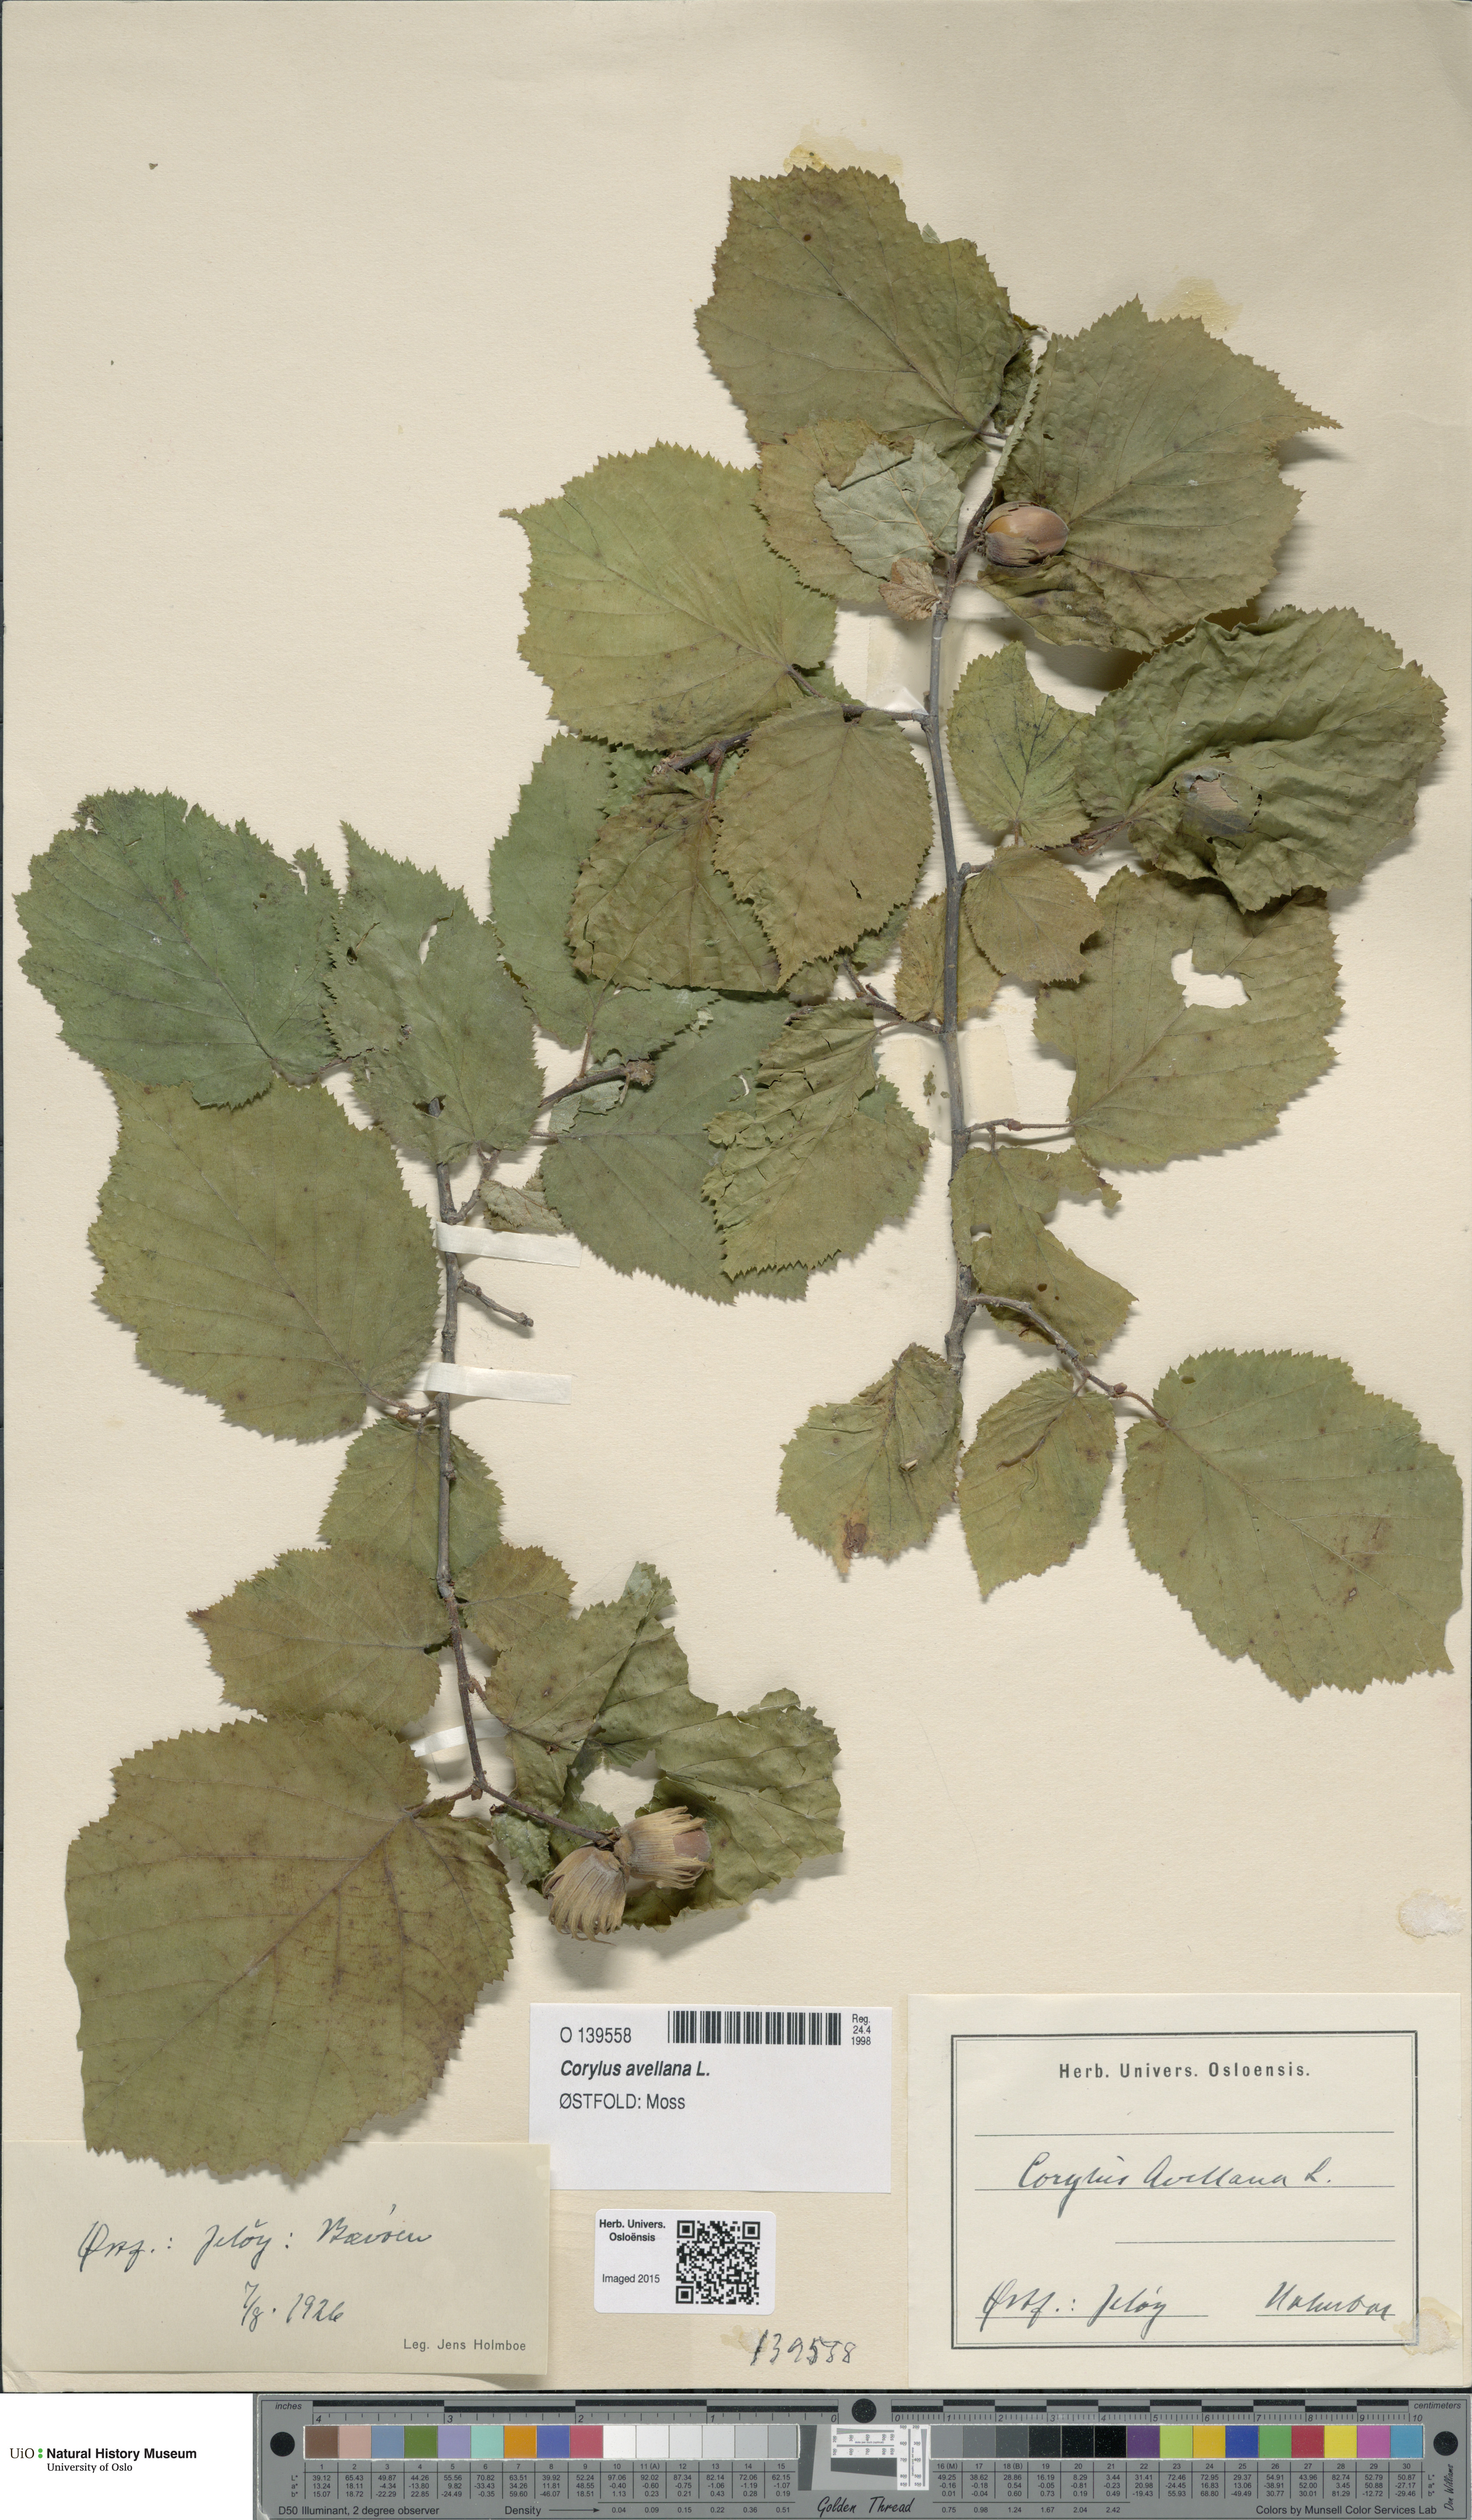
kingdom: Plantae
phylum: Tracheophyta
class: Magnoliopsida
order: Fagales
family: Betulaceae
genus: Corylus
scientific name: Corylus avellana
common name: European hazel
